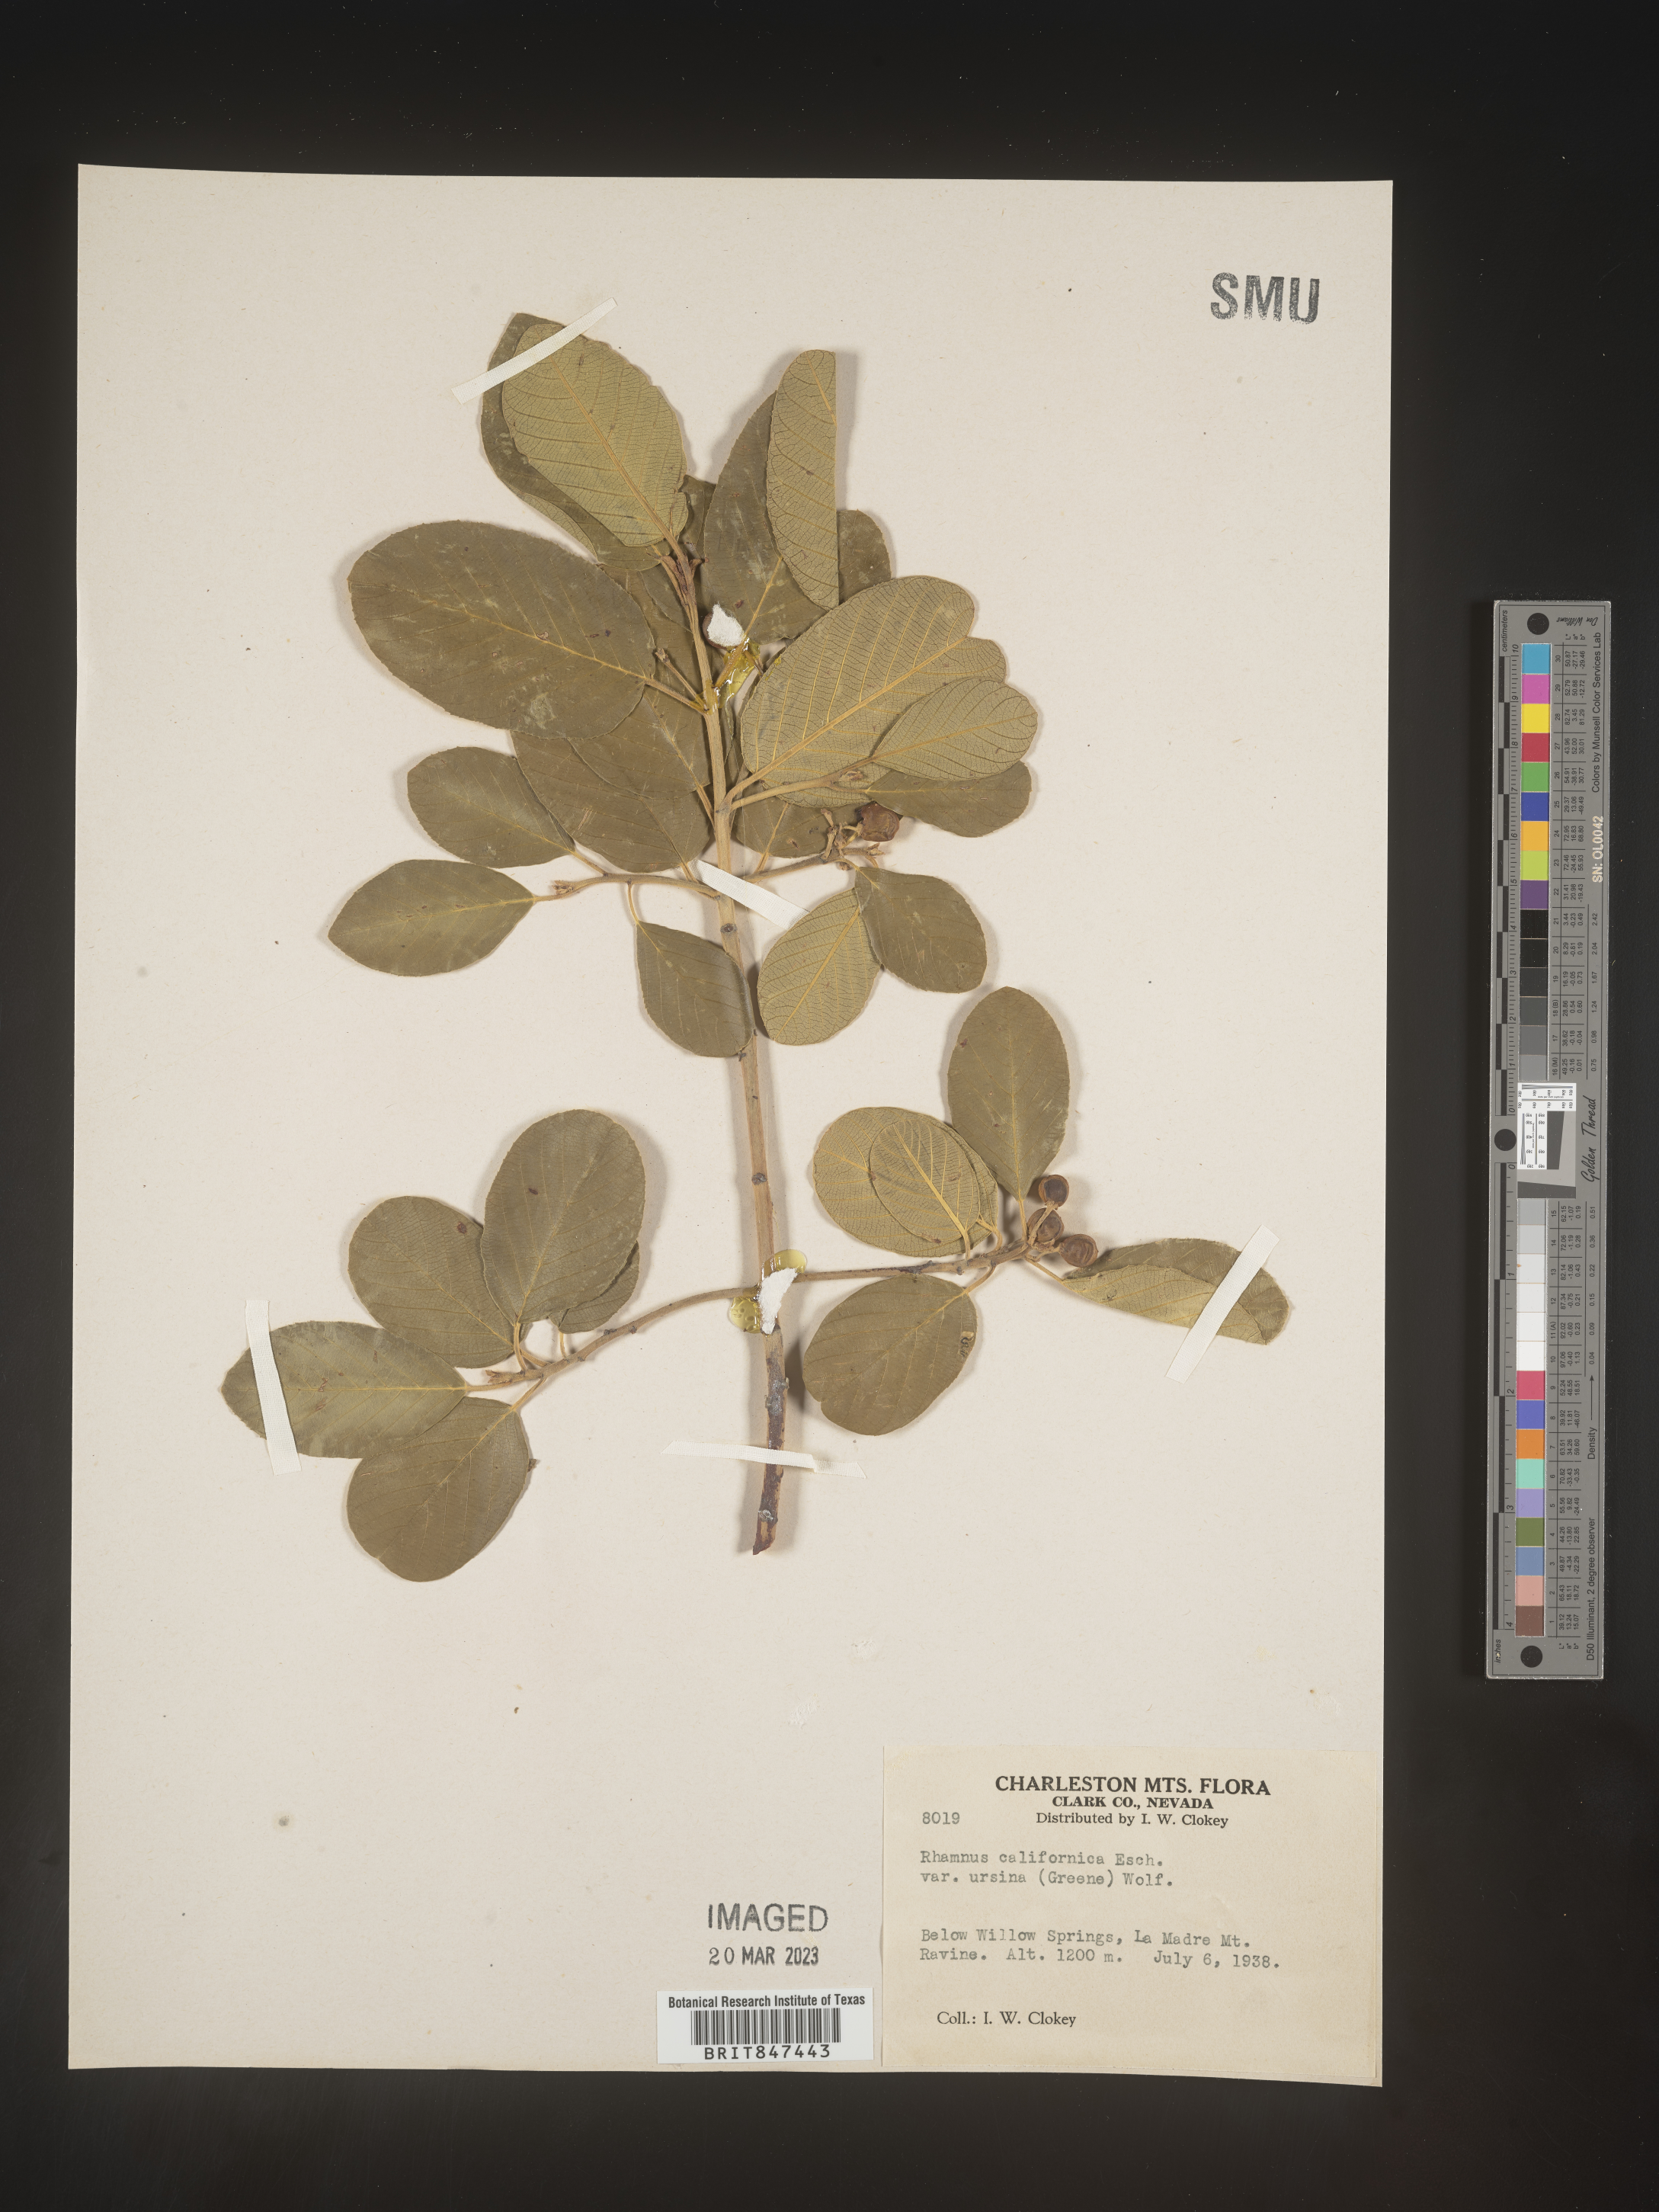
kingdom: Plantae
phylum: Tracheophyta
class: Magnoliopsida
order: Rosales
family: Rhamnaceae
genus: Frangula
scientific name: Frangula californica
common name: California buckthorn
